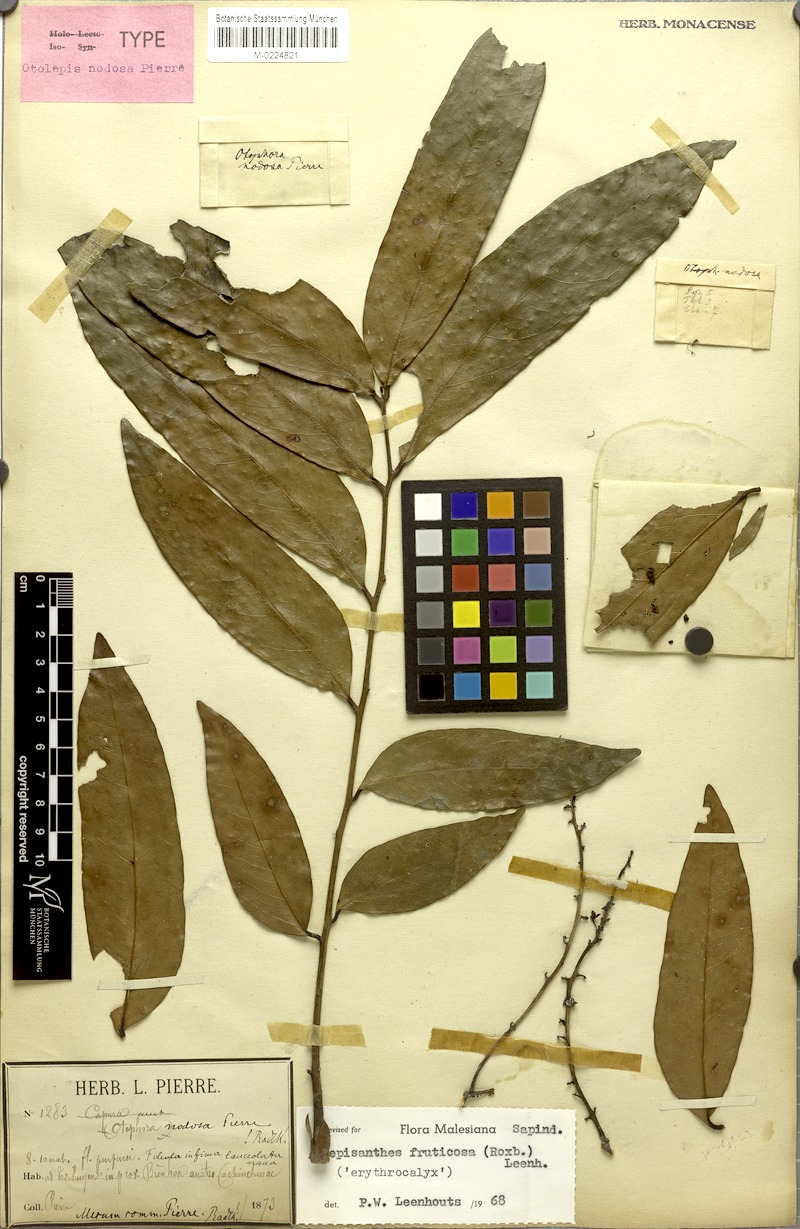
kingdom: Plantae
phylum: Tracheophyta
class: Magnoliopsida
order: Sapindales
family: Sapindaceae
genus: Lepisanthes
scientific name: Lepisanthes fruticosa
